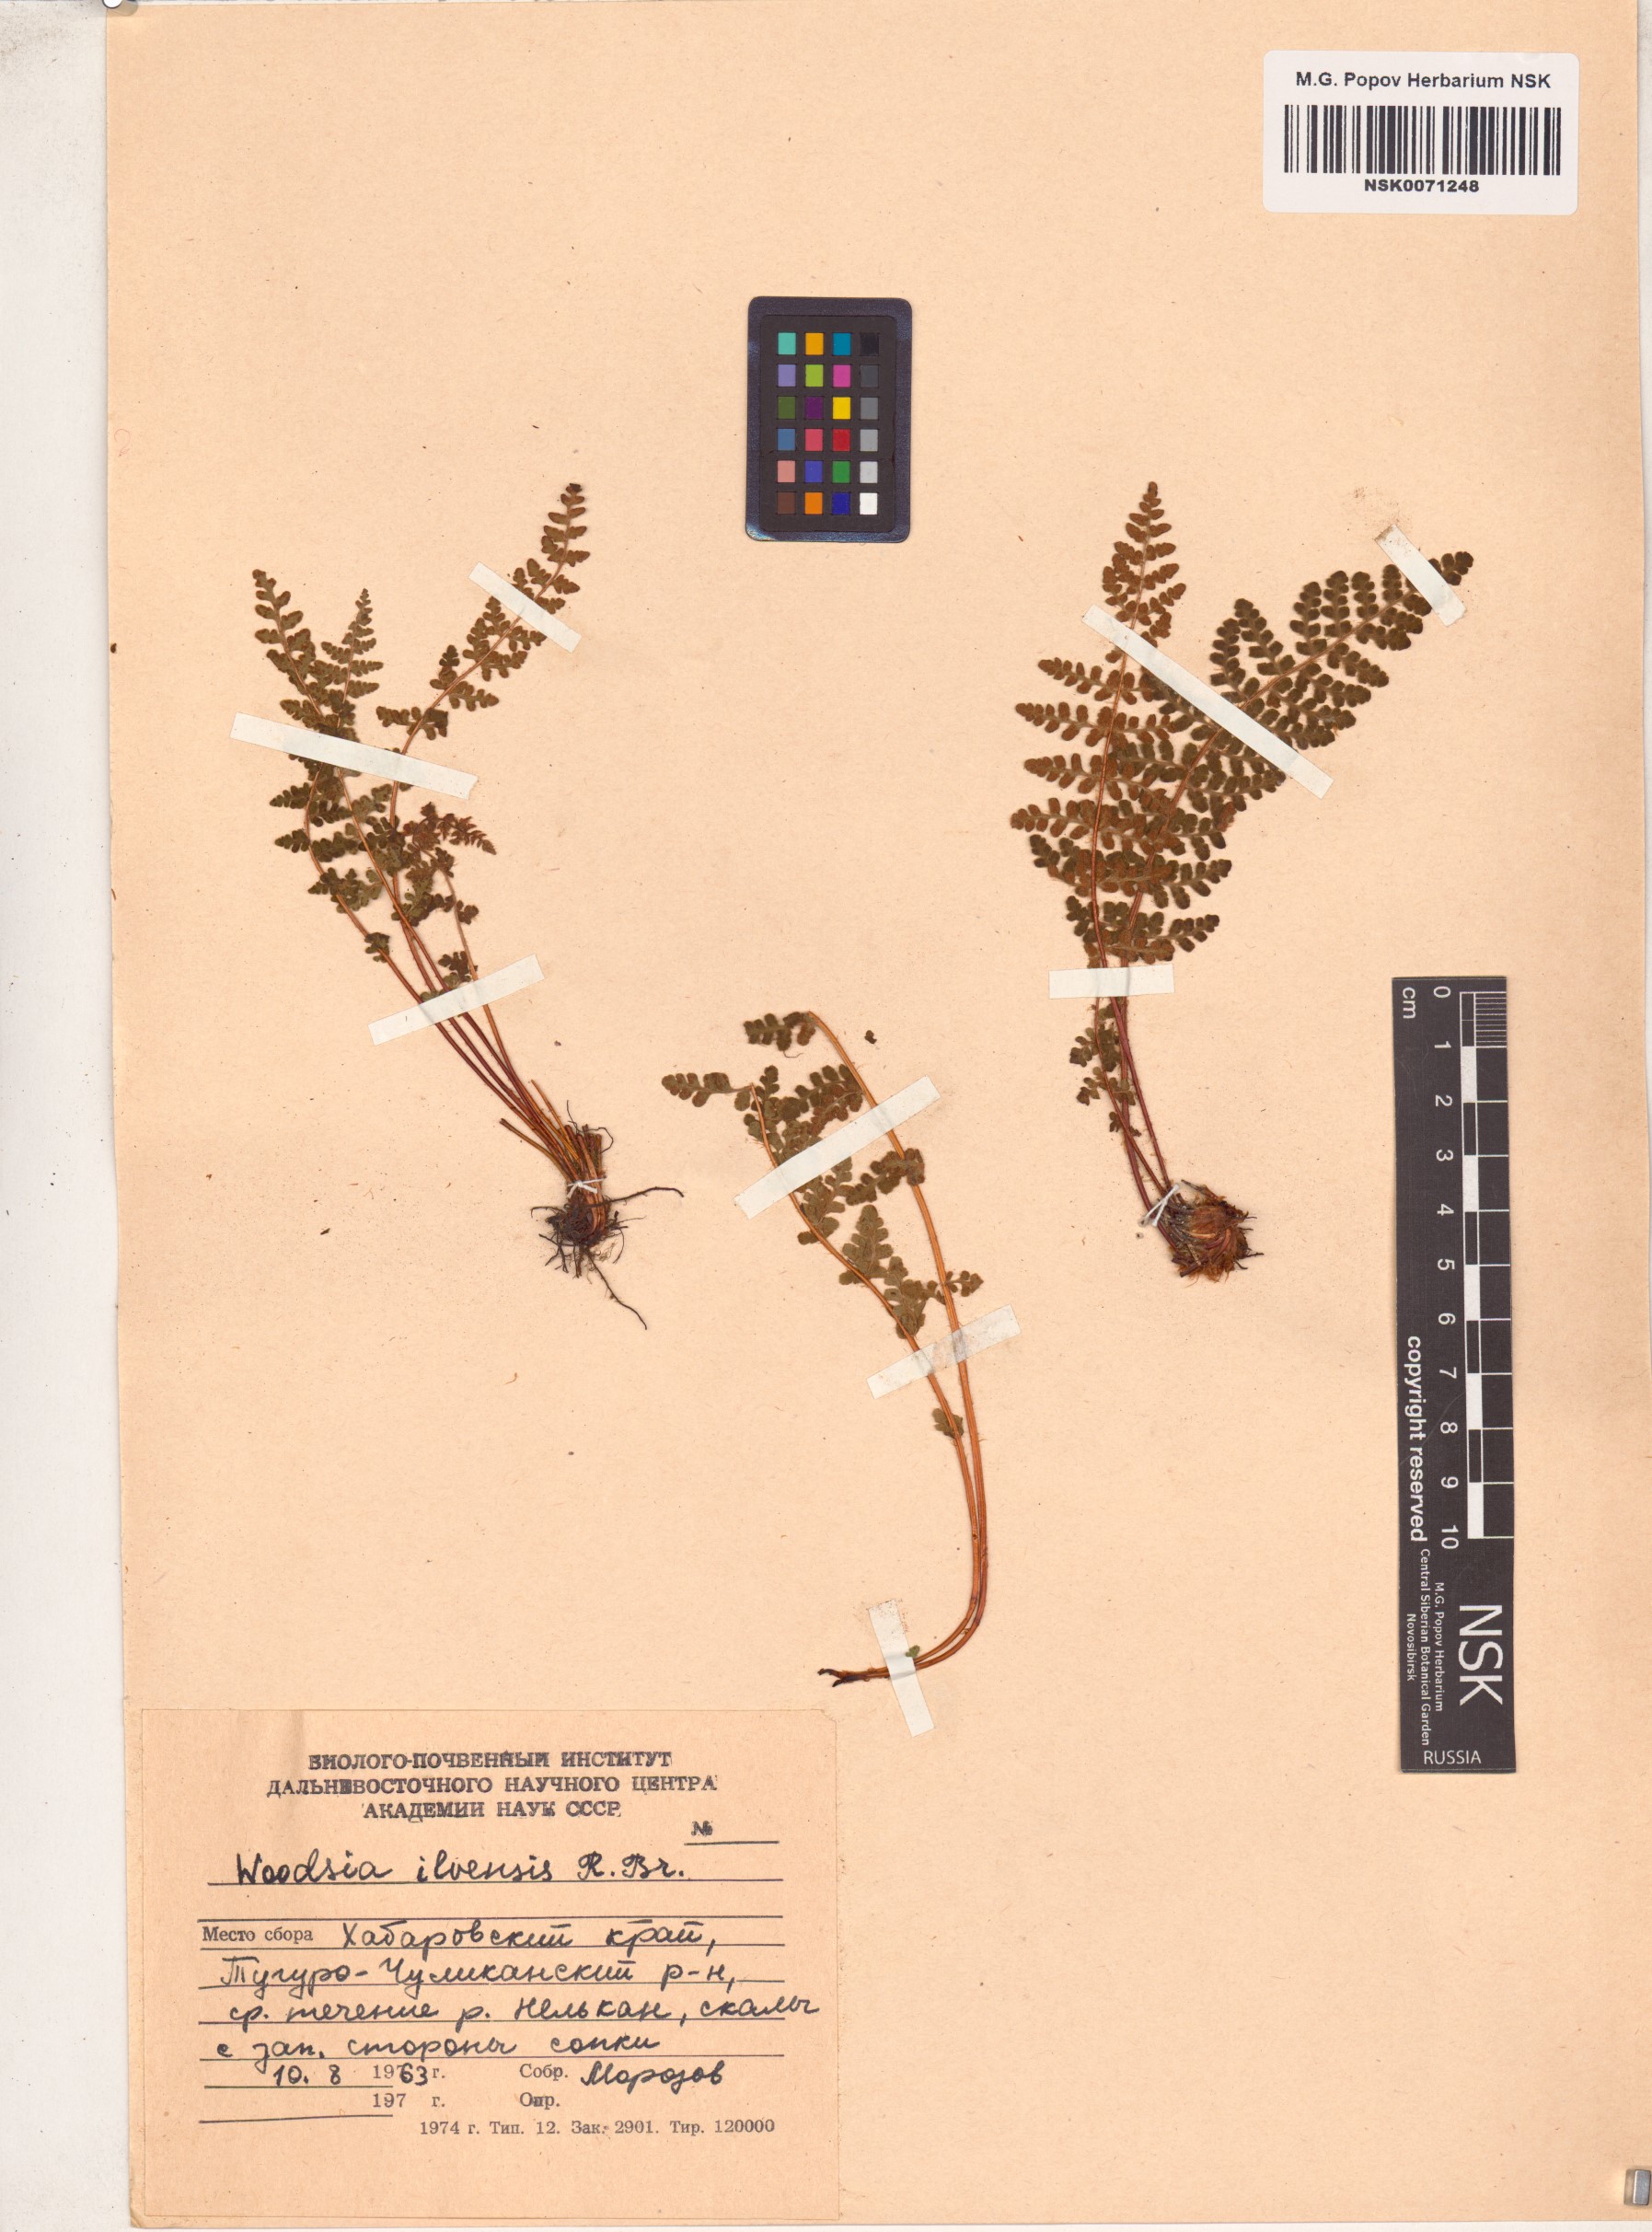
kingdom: Plantae
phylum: Tracheophyta
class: Polypodiopsida
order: Polypodiales
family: Woodsiaceae
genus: Woodsia
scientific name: Woodsia ilvensis
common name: Fragrant woodsia
